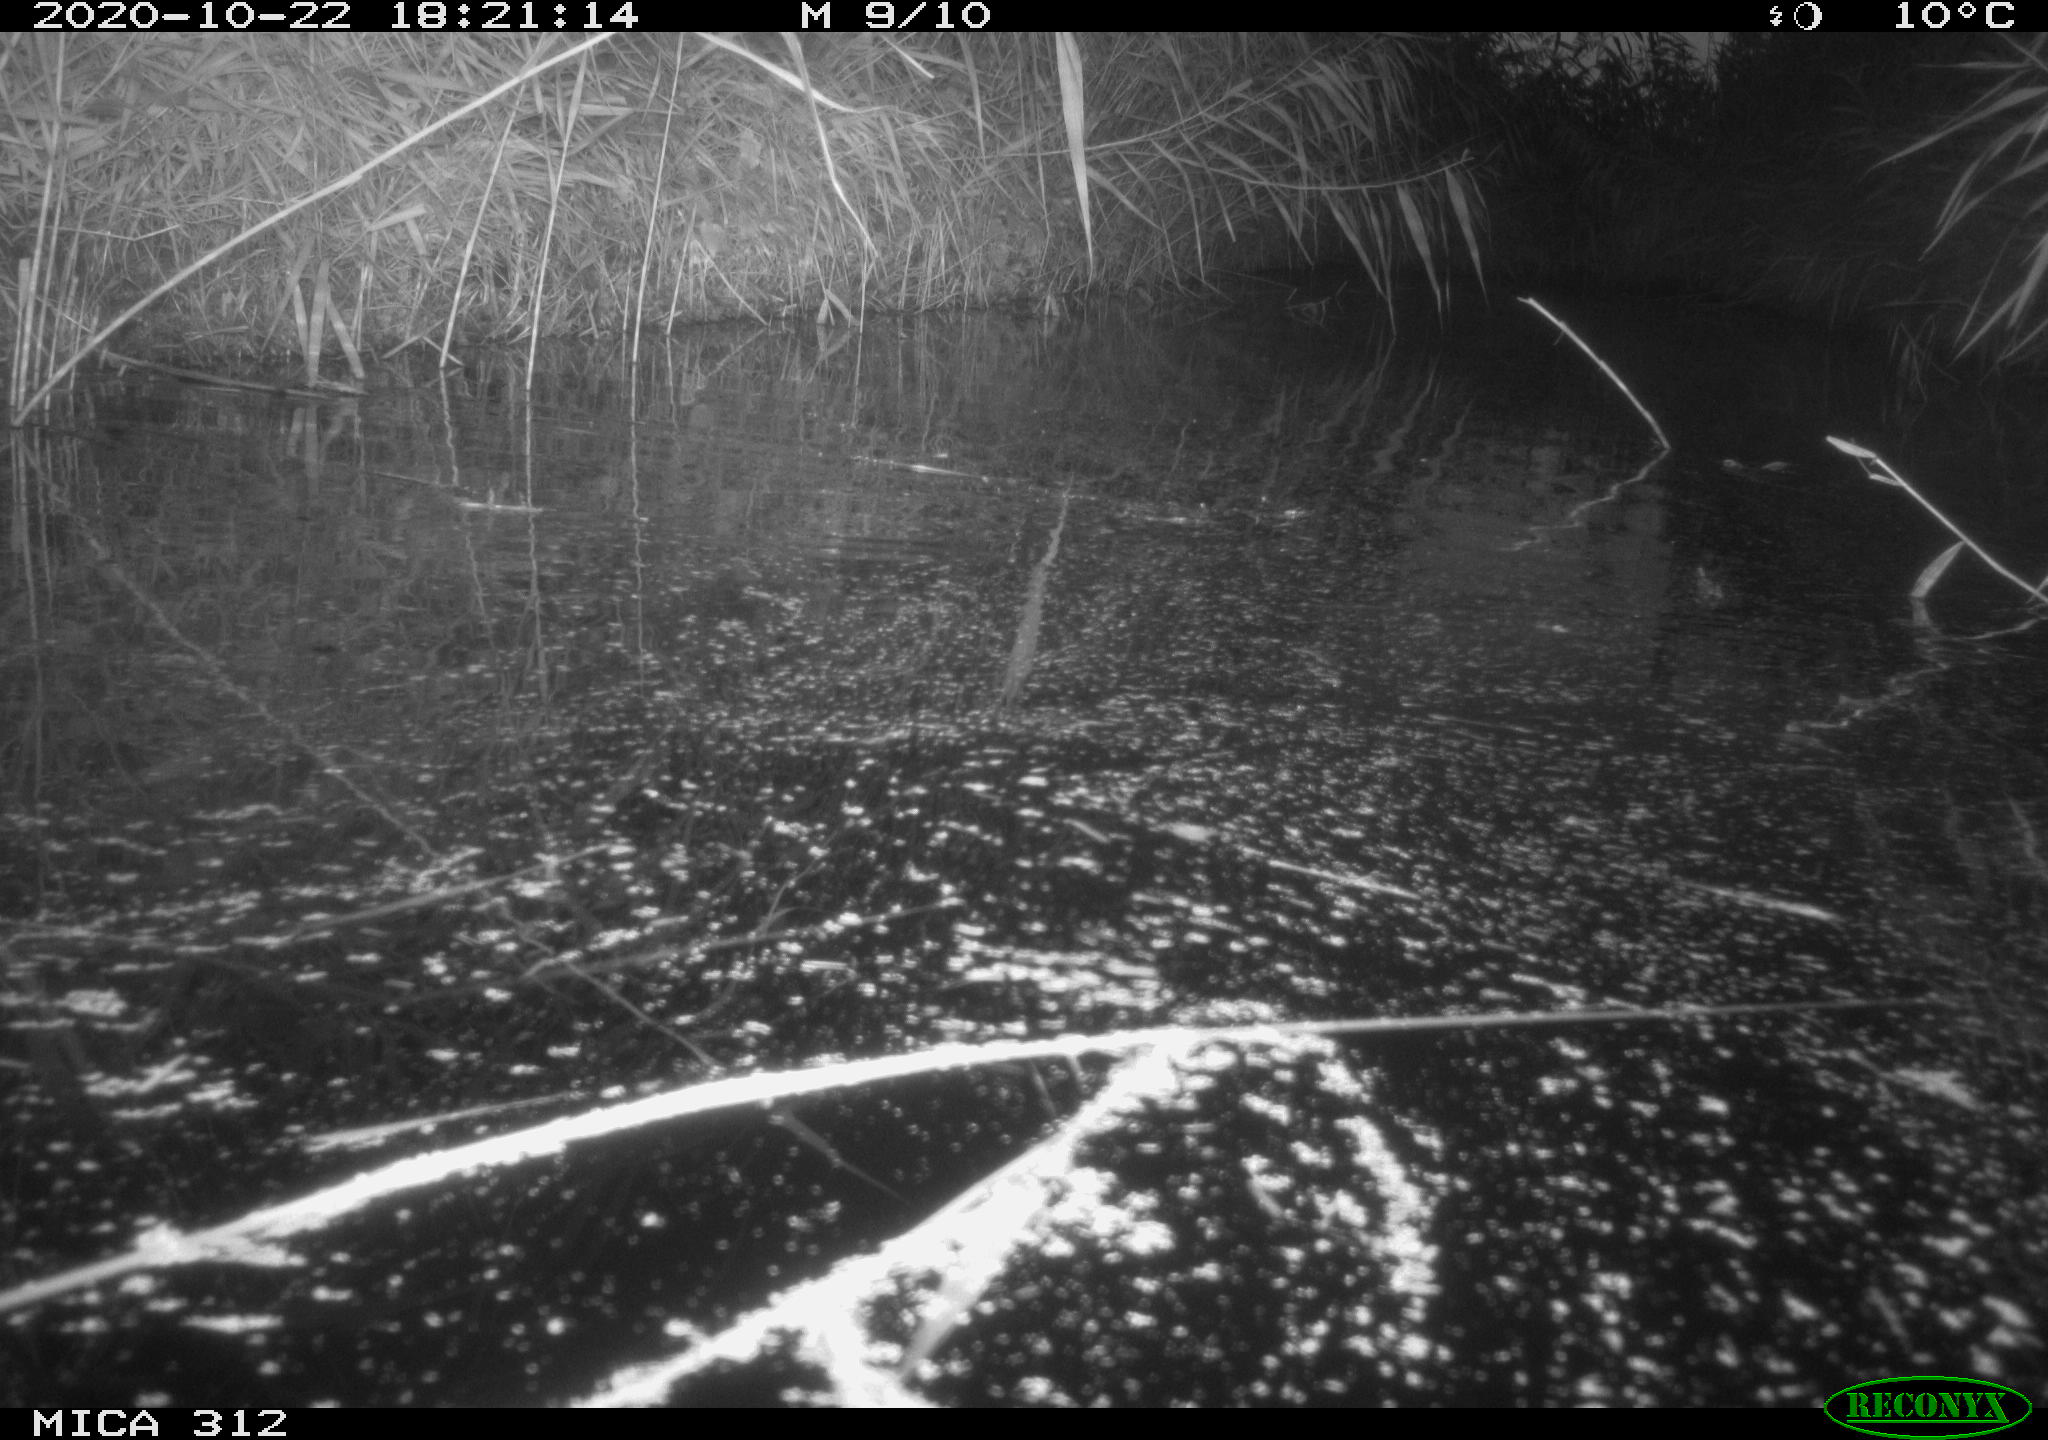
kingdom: Animalia
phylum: Chordata
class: Mammalia
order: Rodentia
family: Muridae
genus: Rattus
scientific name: Rattus norvegicus
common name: Brown rat
